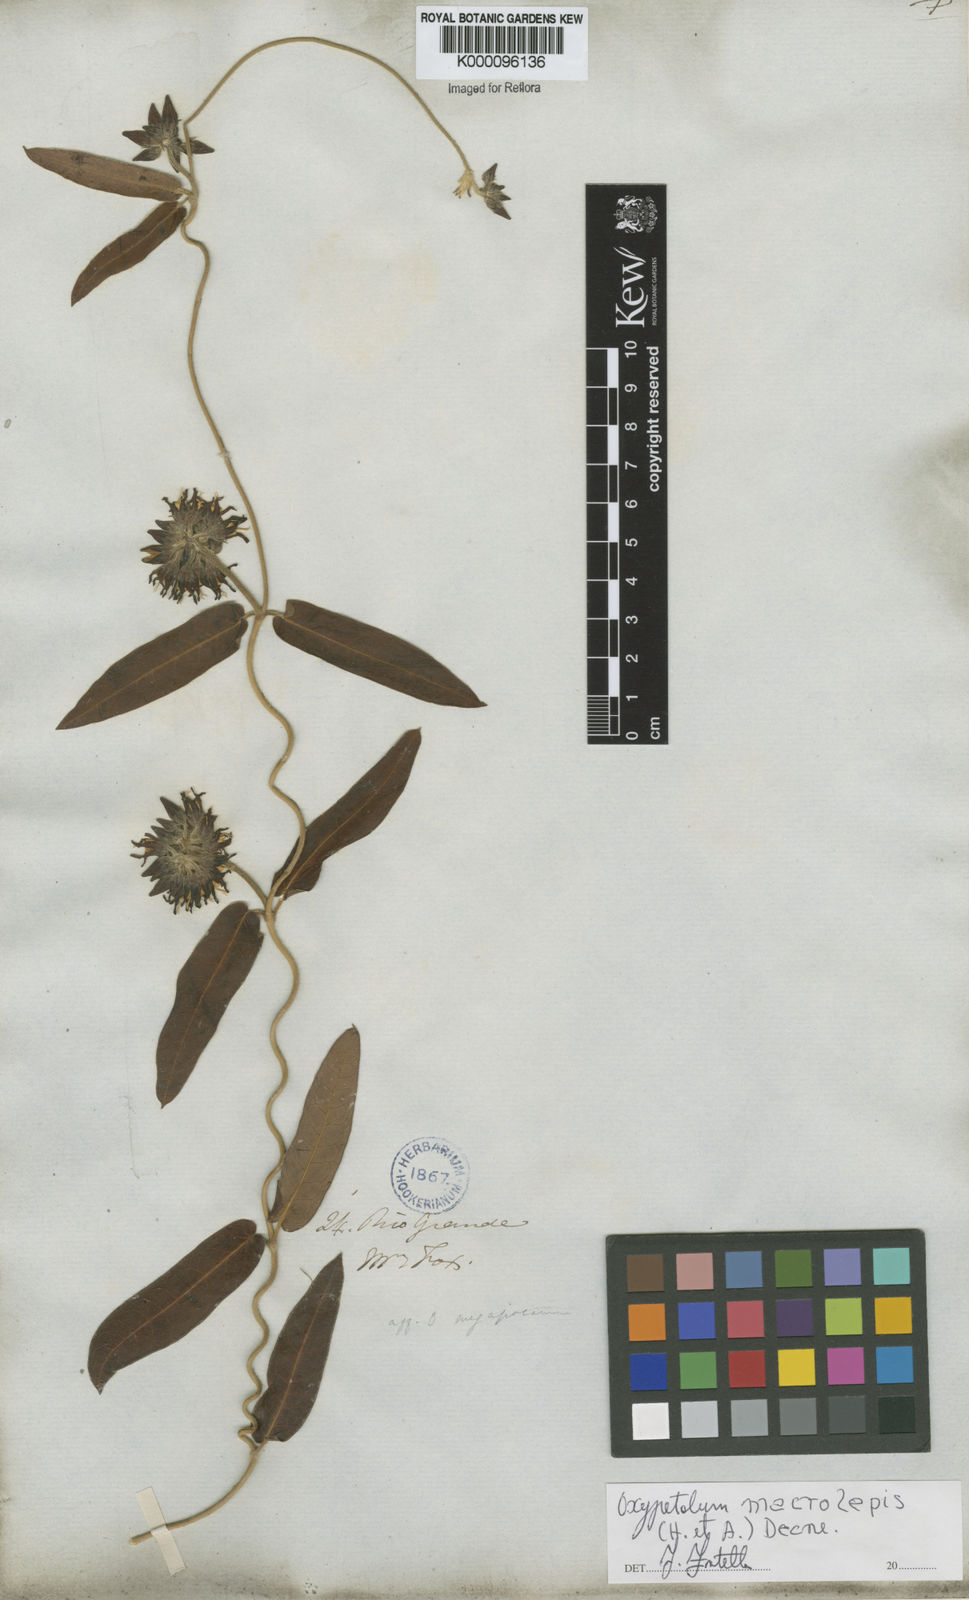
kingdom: Plantae
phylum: Tracheophyta
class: Magnoliopsida
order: Gentianales
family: Apocynaceae
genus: Oxypetalum
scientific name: Oxypetalum macrolepis
